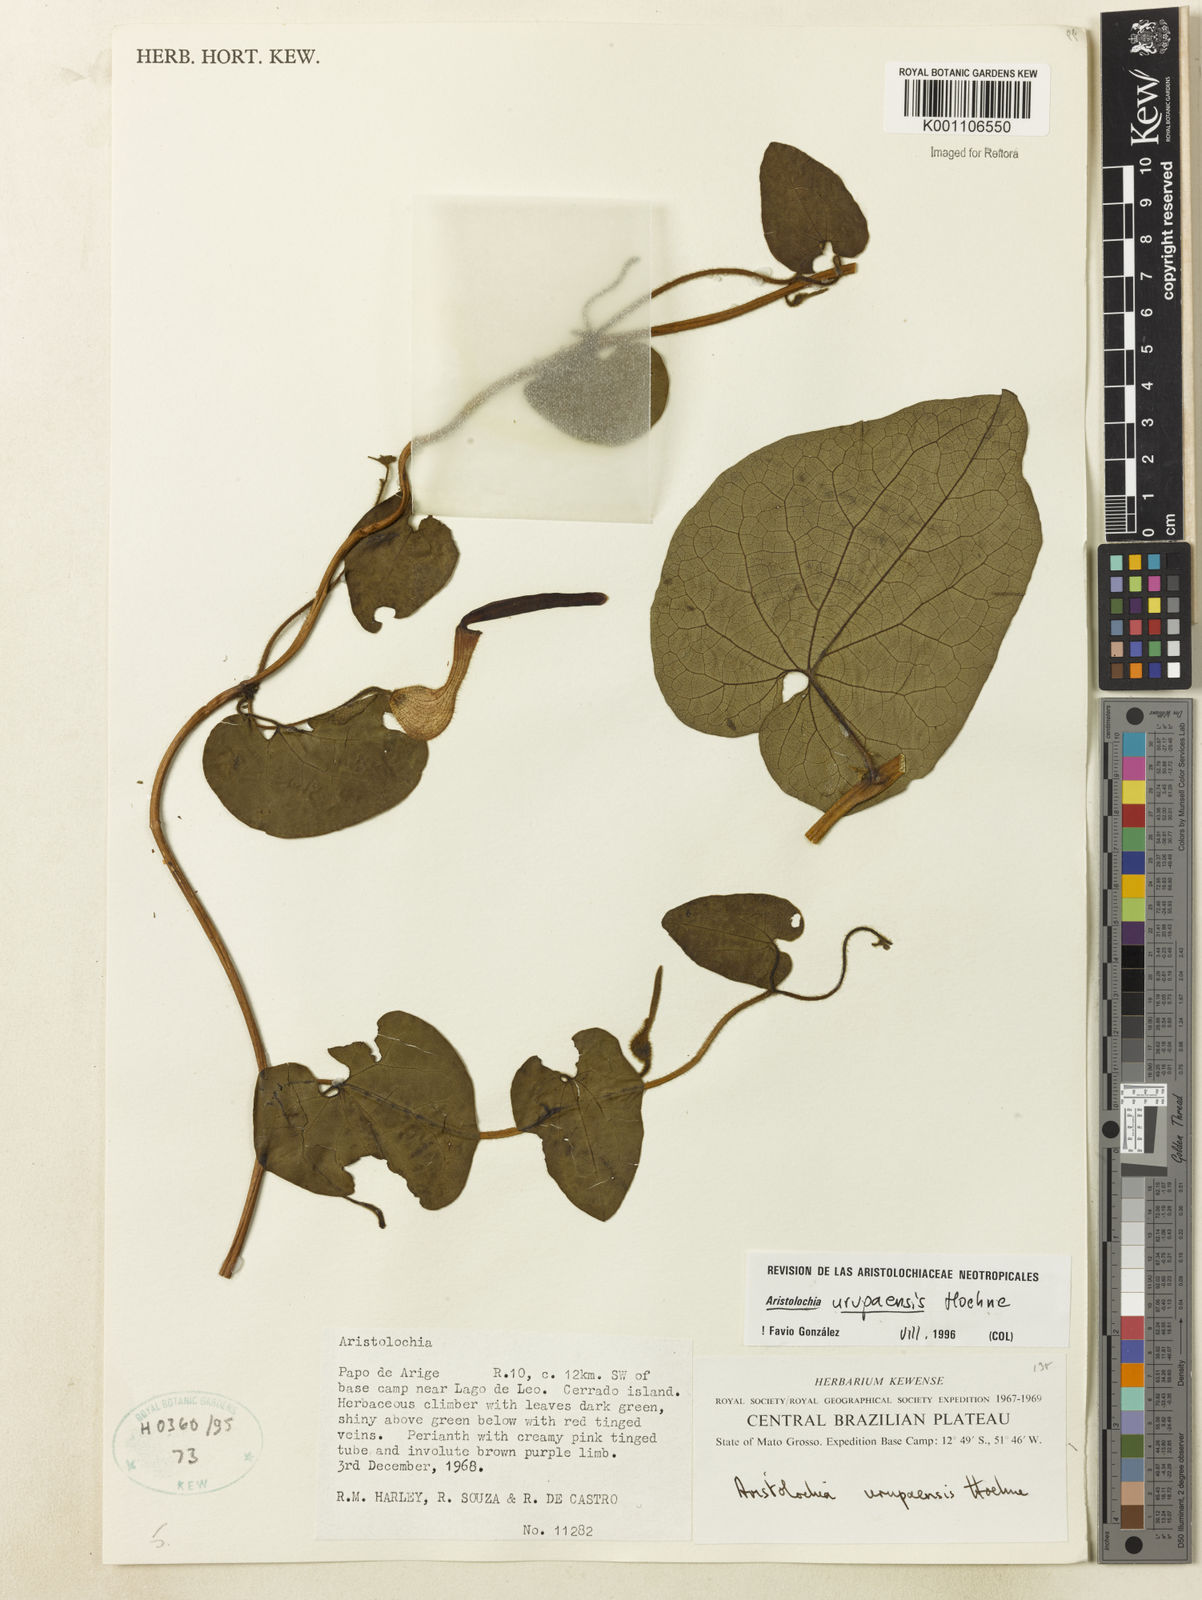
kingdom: Plantae
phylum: Tracheophyta
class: Magnoliopsida
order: Piperales
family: Aristolochiaceae
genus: Aristolochia
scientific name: Aristolochia urupaensis
